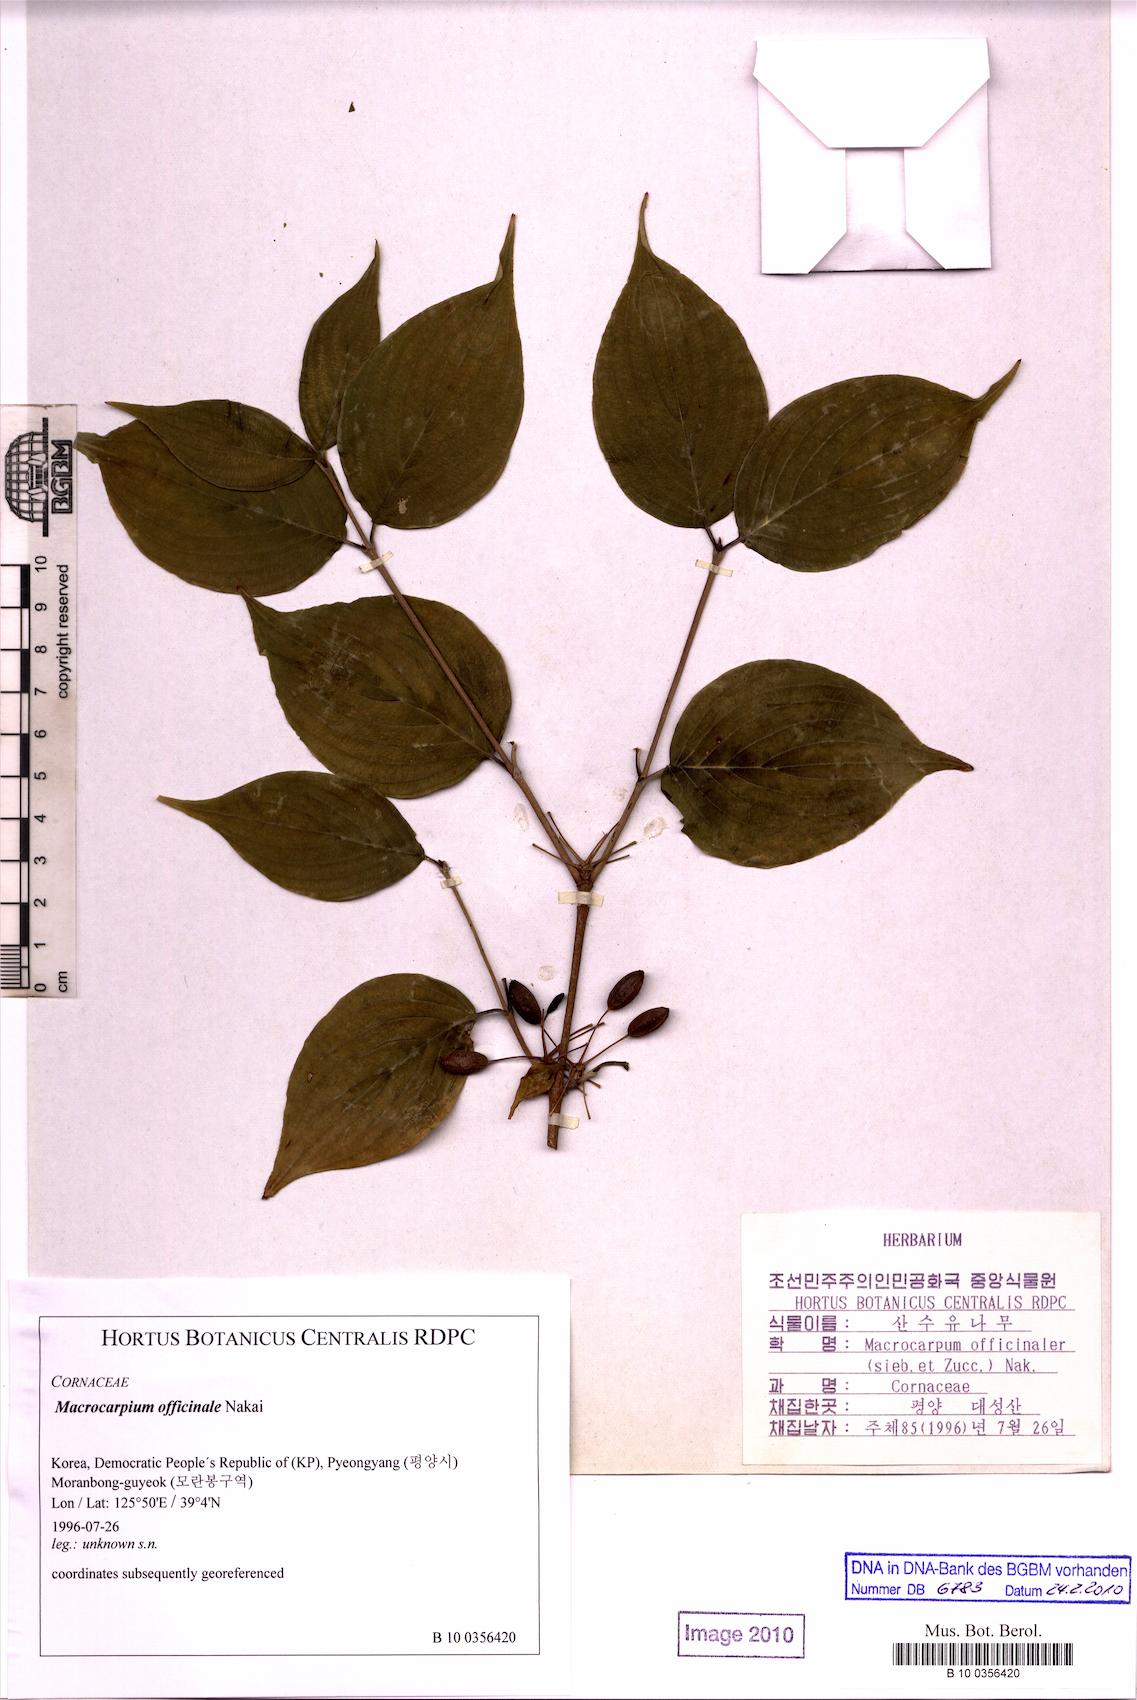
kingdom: Plantae
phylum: Tracheophyta
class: Magnoliopsida
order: Cornales
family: Cornaceae
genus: Cornus
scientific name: Cornus officinalis
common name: Asiatic dogwood
